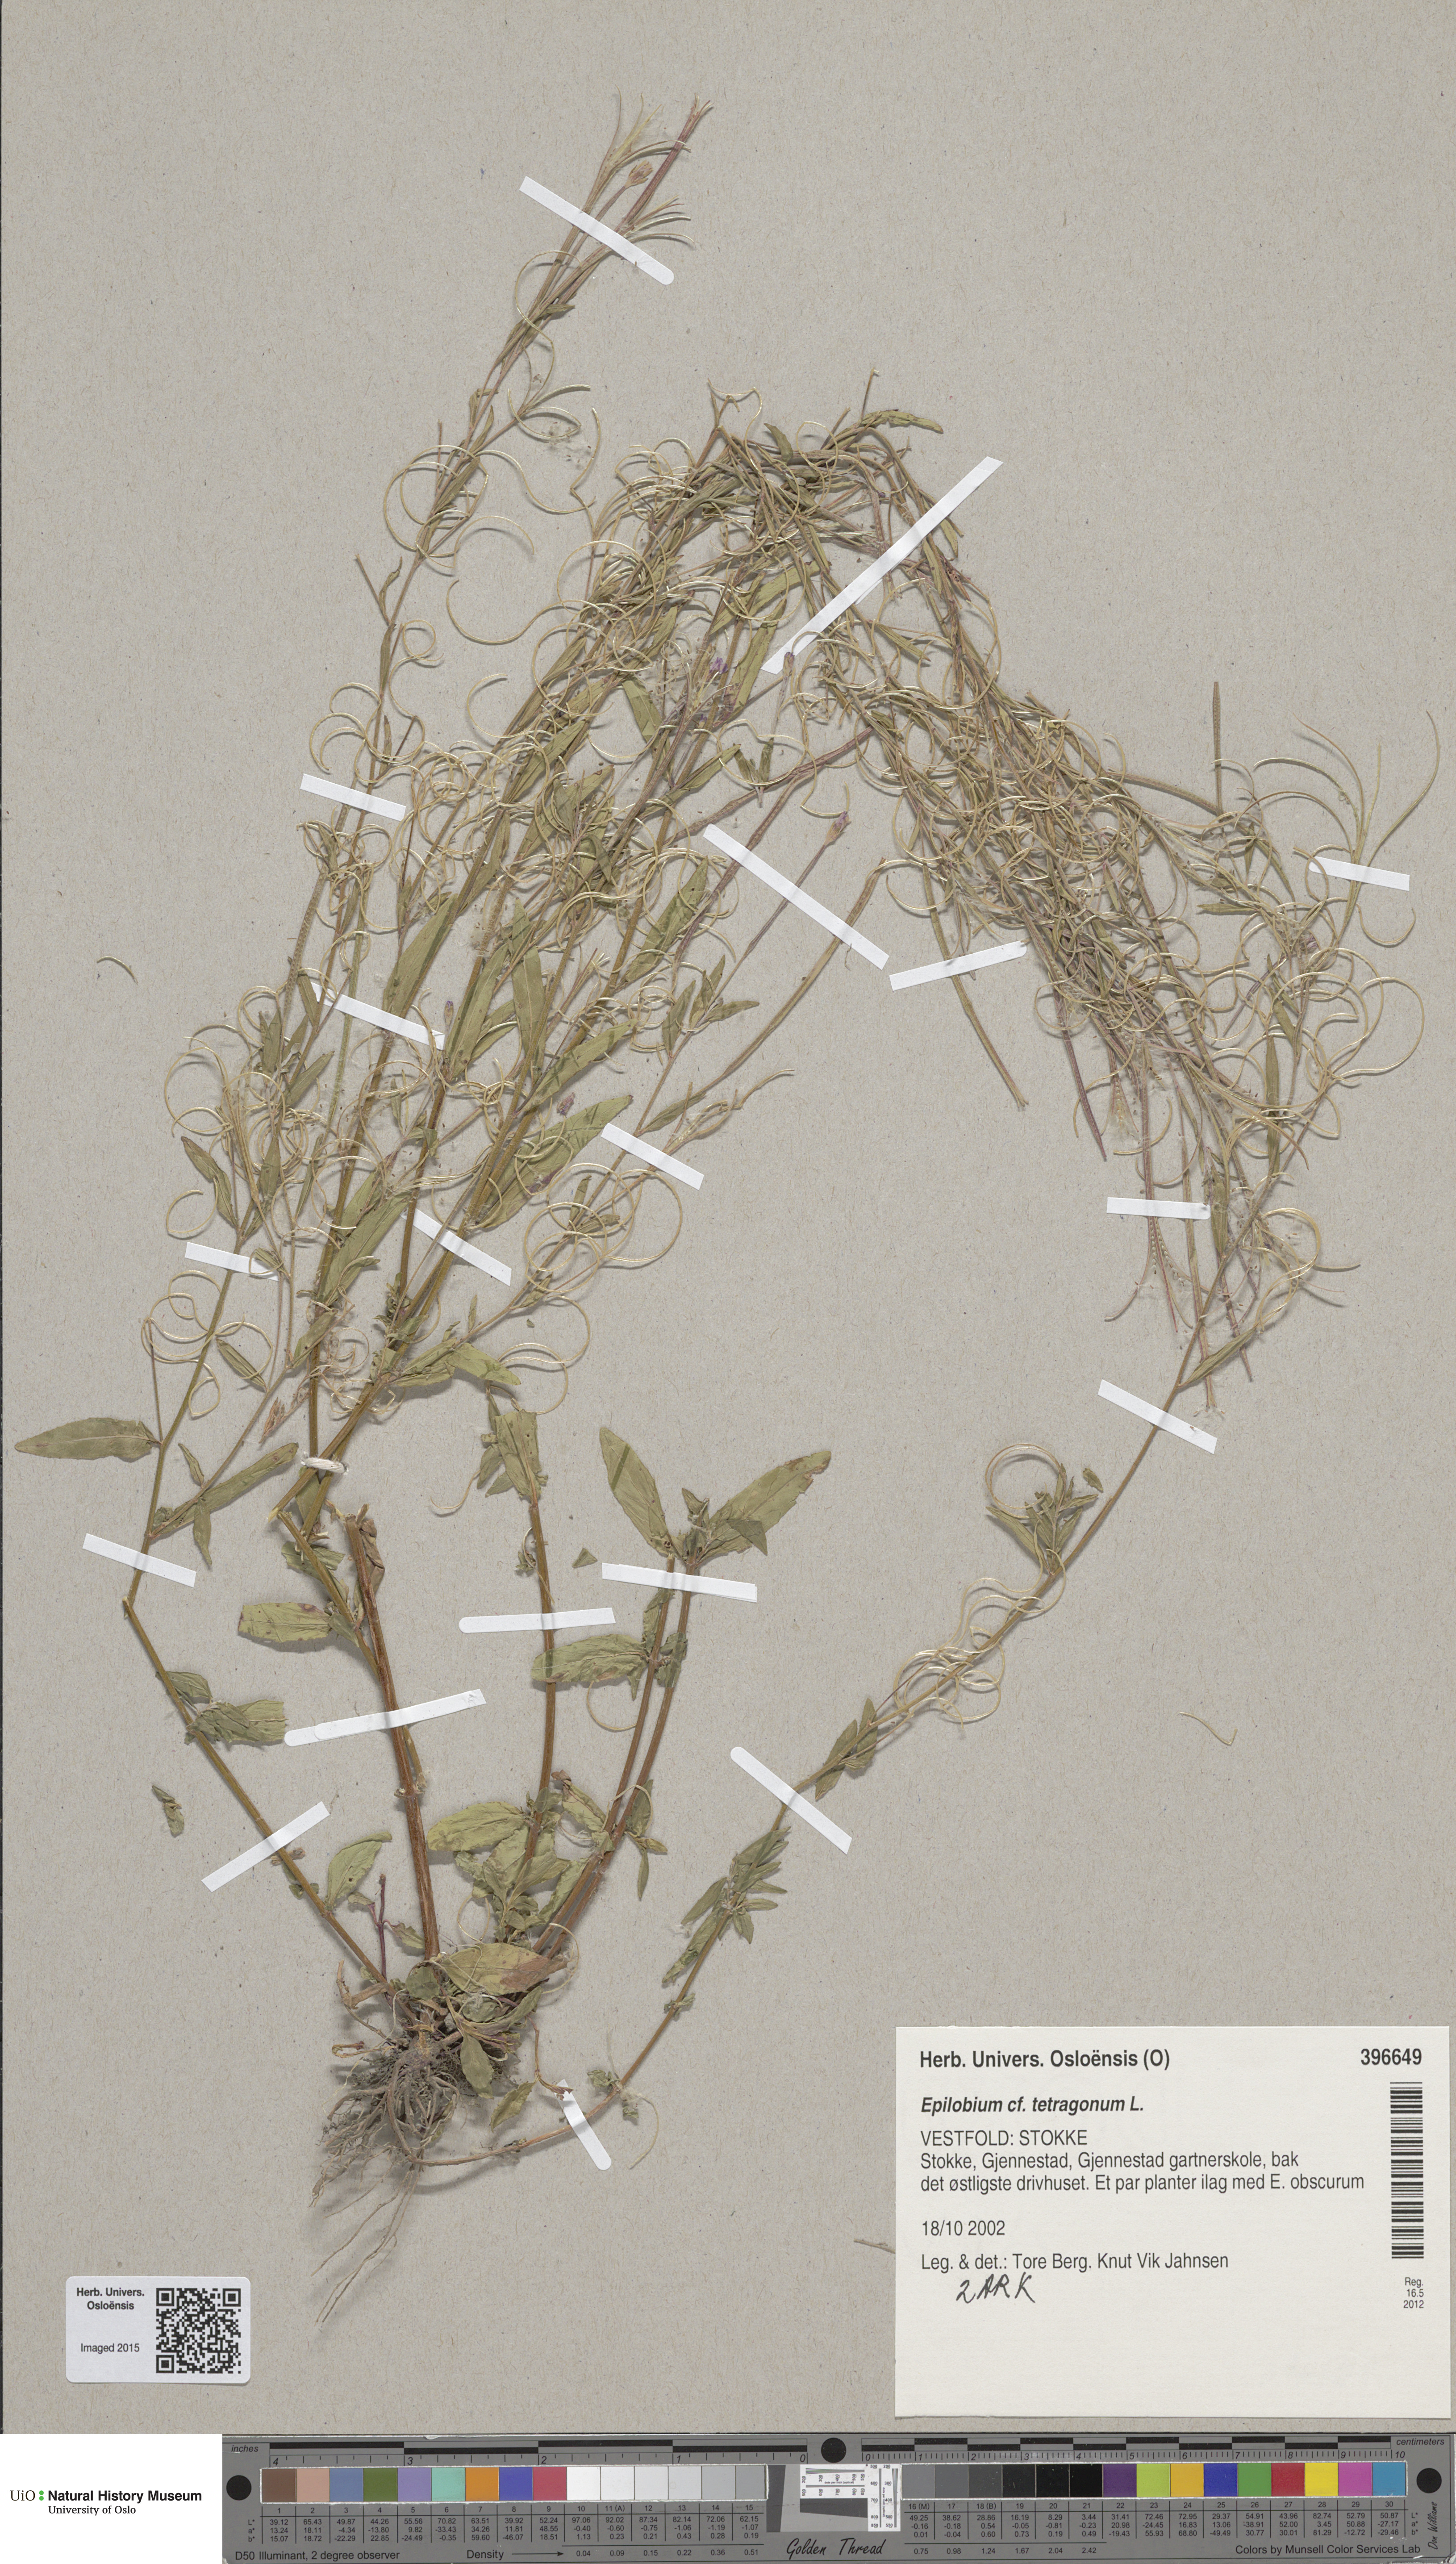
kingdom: Plantae
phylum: Tracheophyta
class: Magnoliopsida
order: Myrtales
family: Onagraceae
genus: Epilobium
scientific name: Epilobium tetragonum
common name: Square-stemmed willowherb
